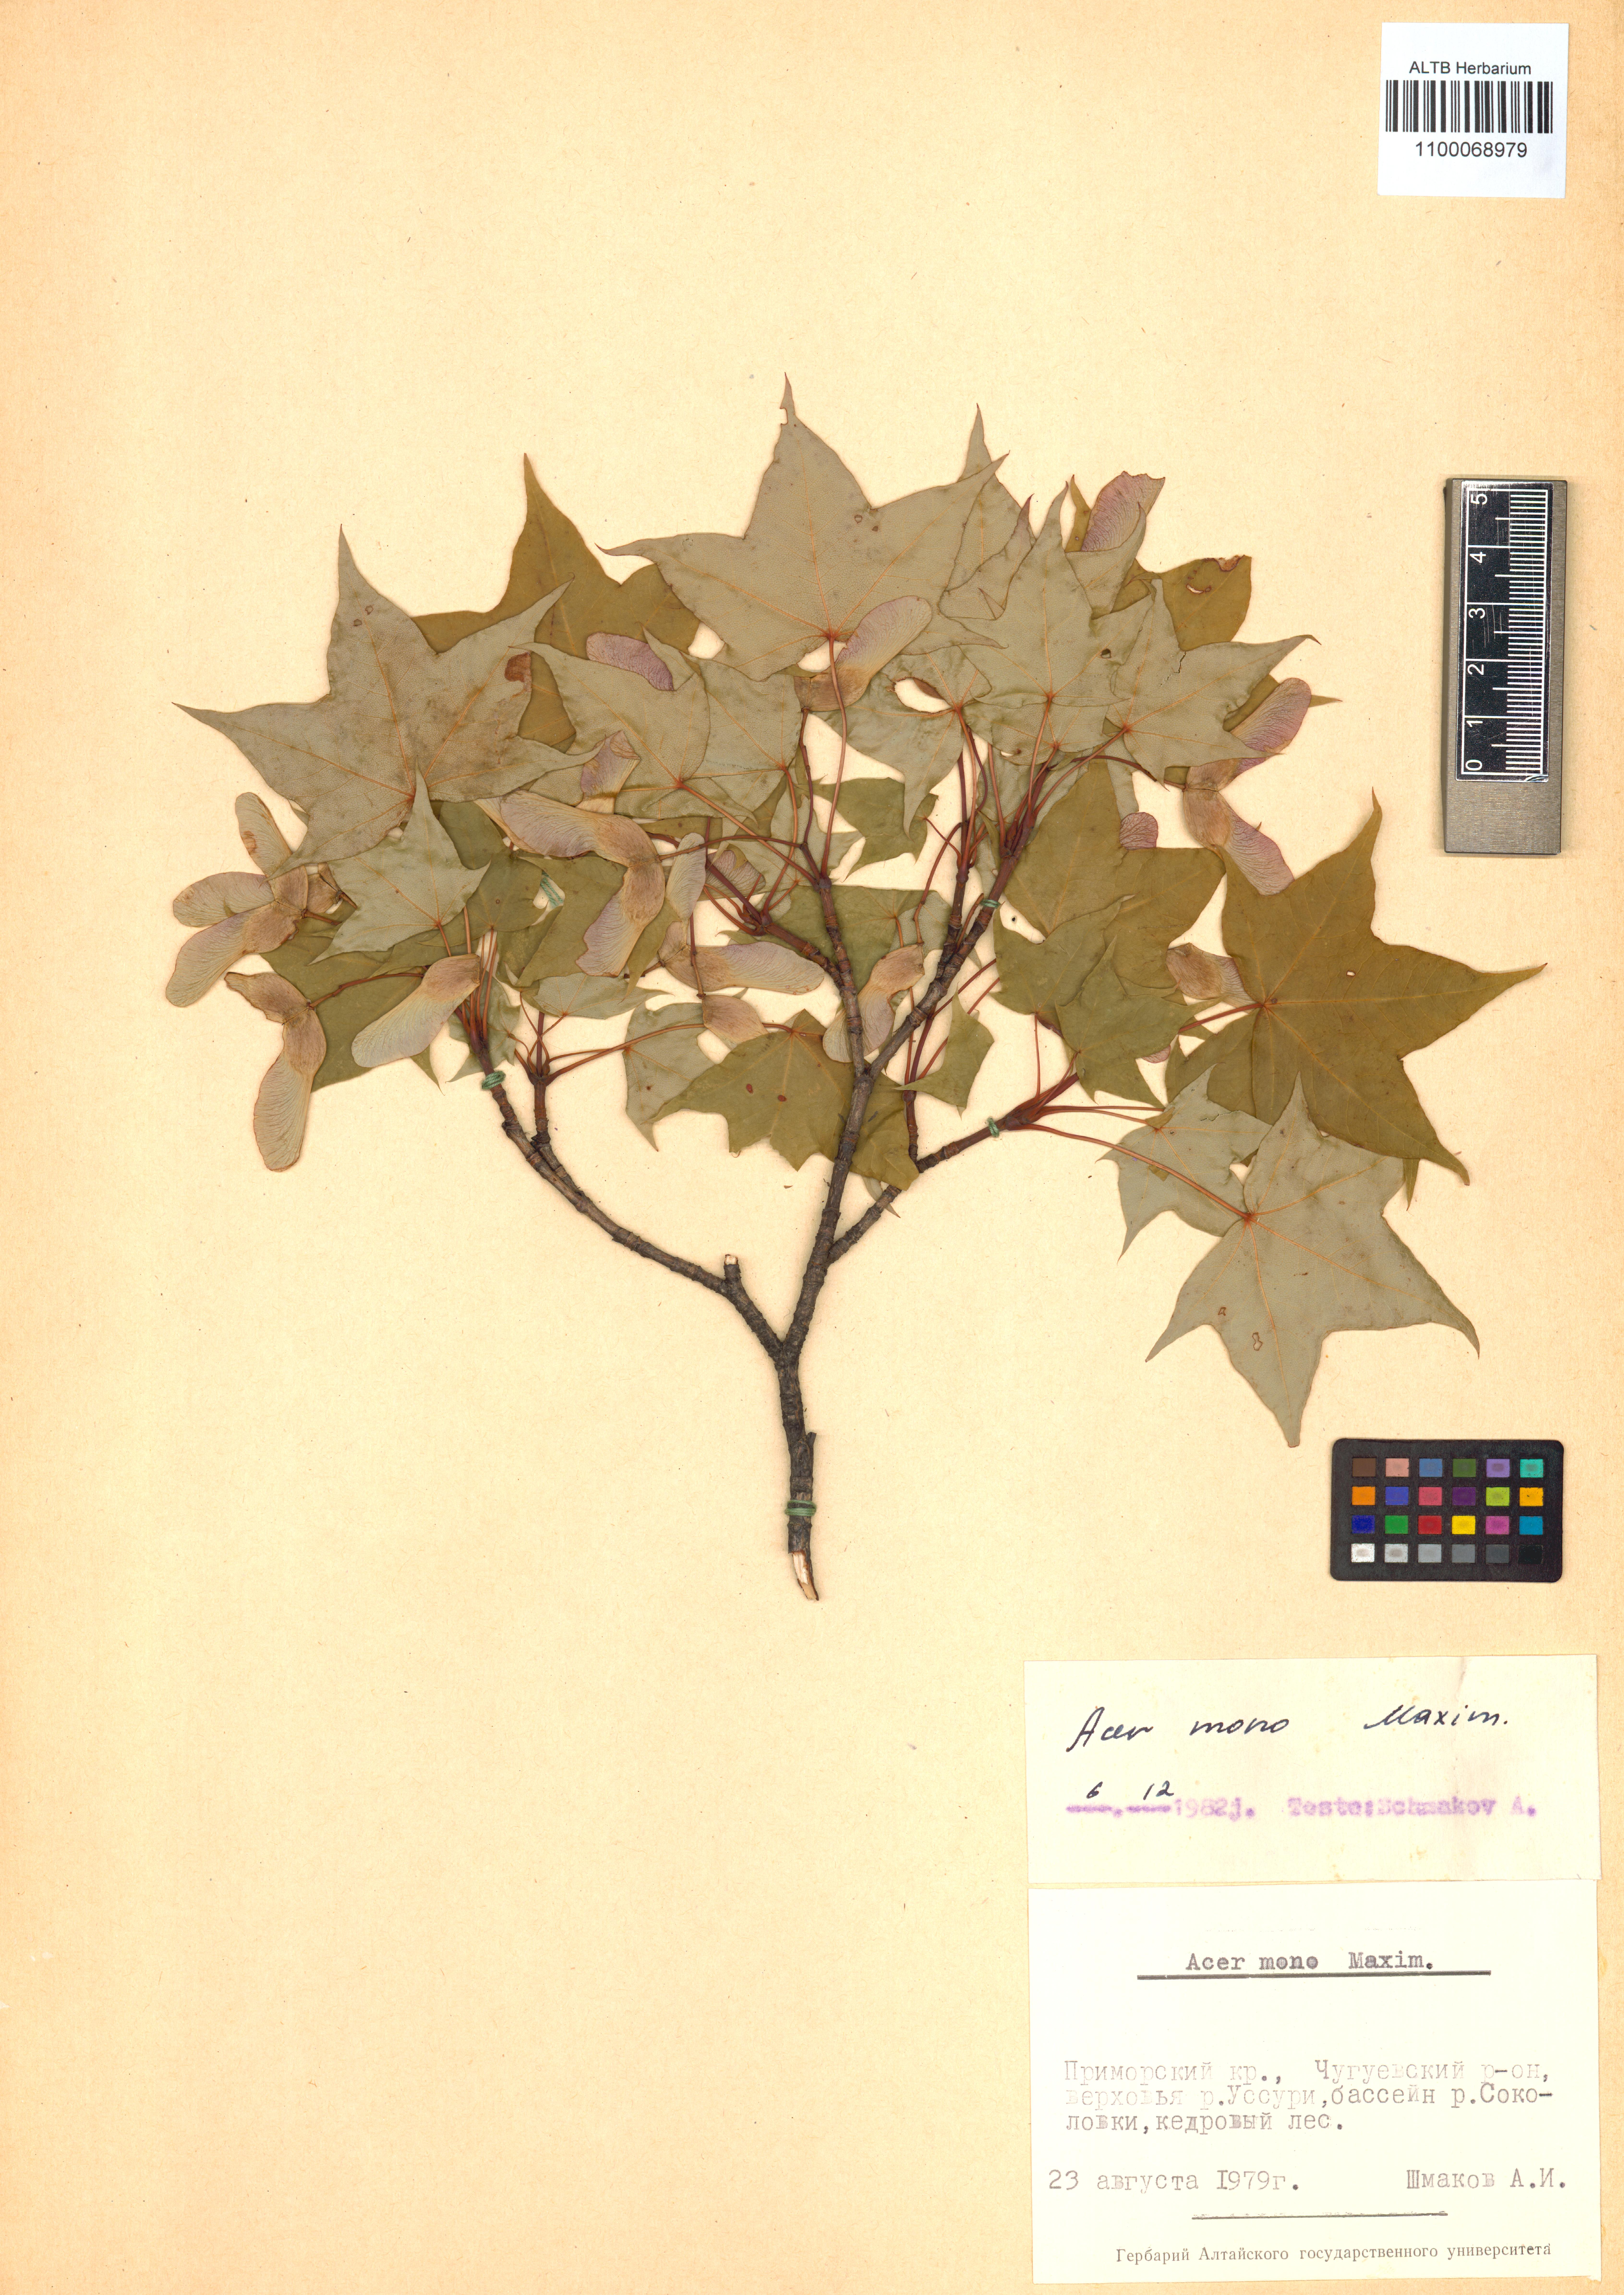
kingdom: Plantae
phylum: Tracheophyta
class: Magnoliopsida
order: Sapindales
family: Sapindaceae
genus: Acer
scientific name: Acer pictum
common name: The painted maple
